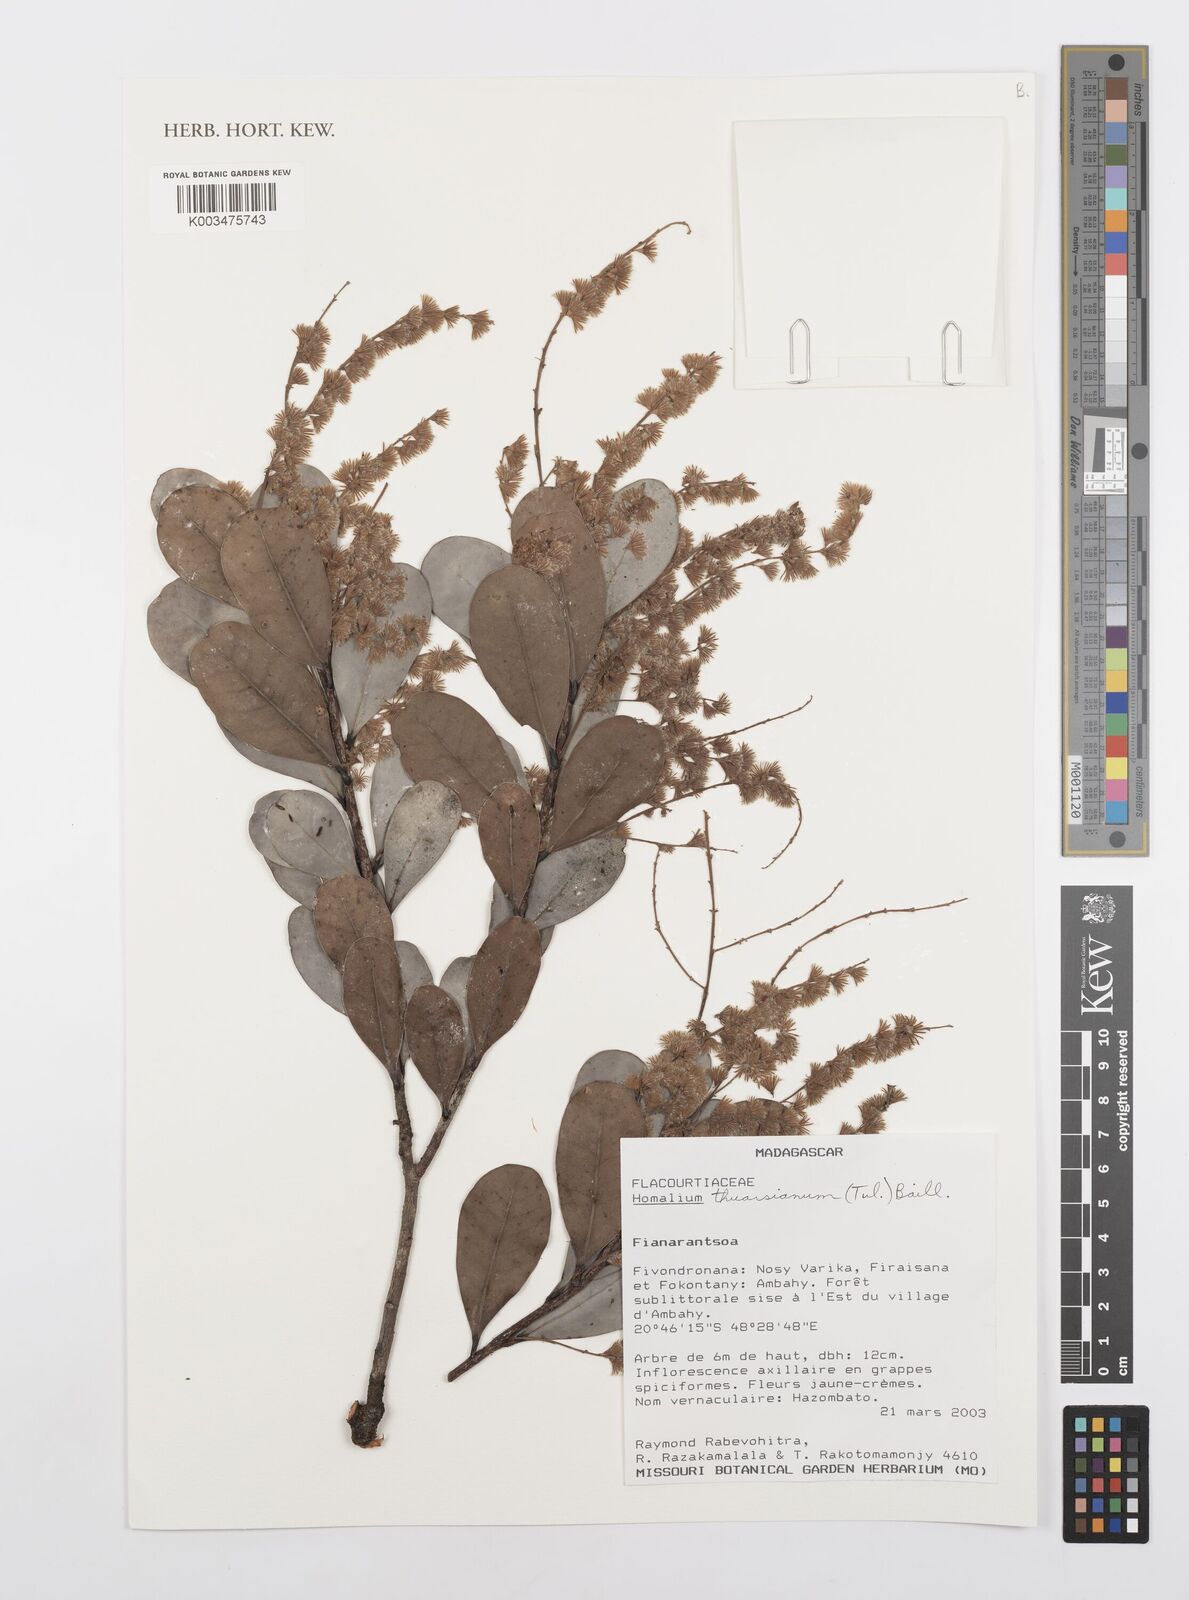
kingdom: Plantae
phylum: Tracheophyta
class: Magnoliopsida
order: Malpighiales
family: Salicaceae
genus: Homalium
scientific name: Homalium thuarsianum
